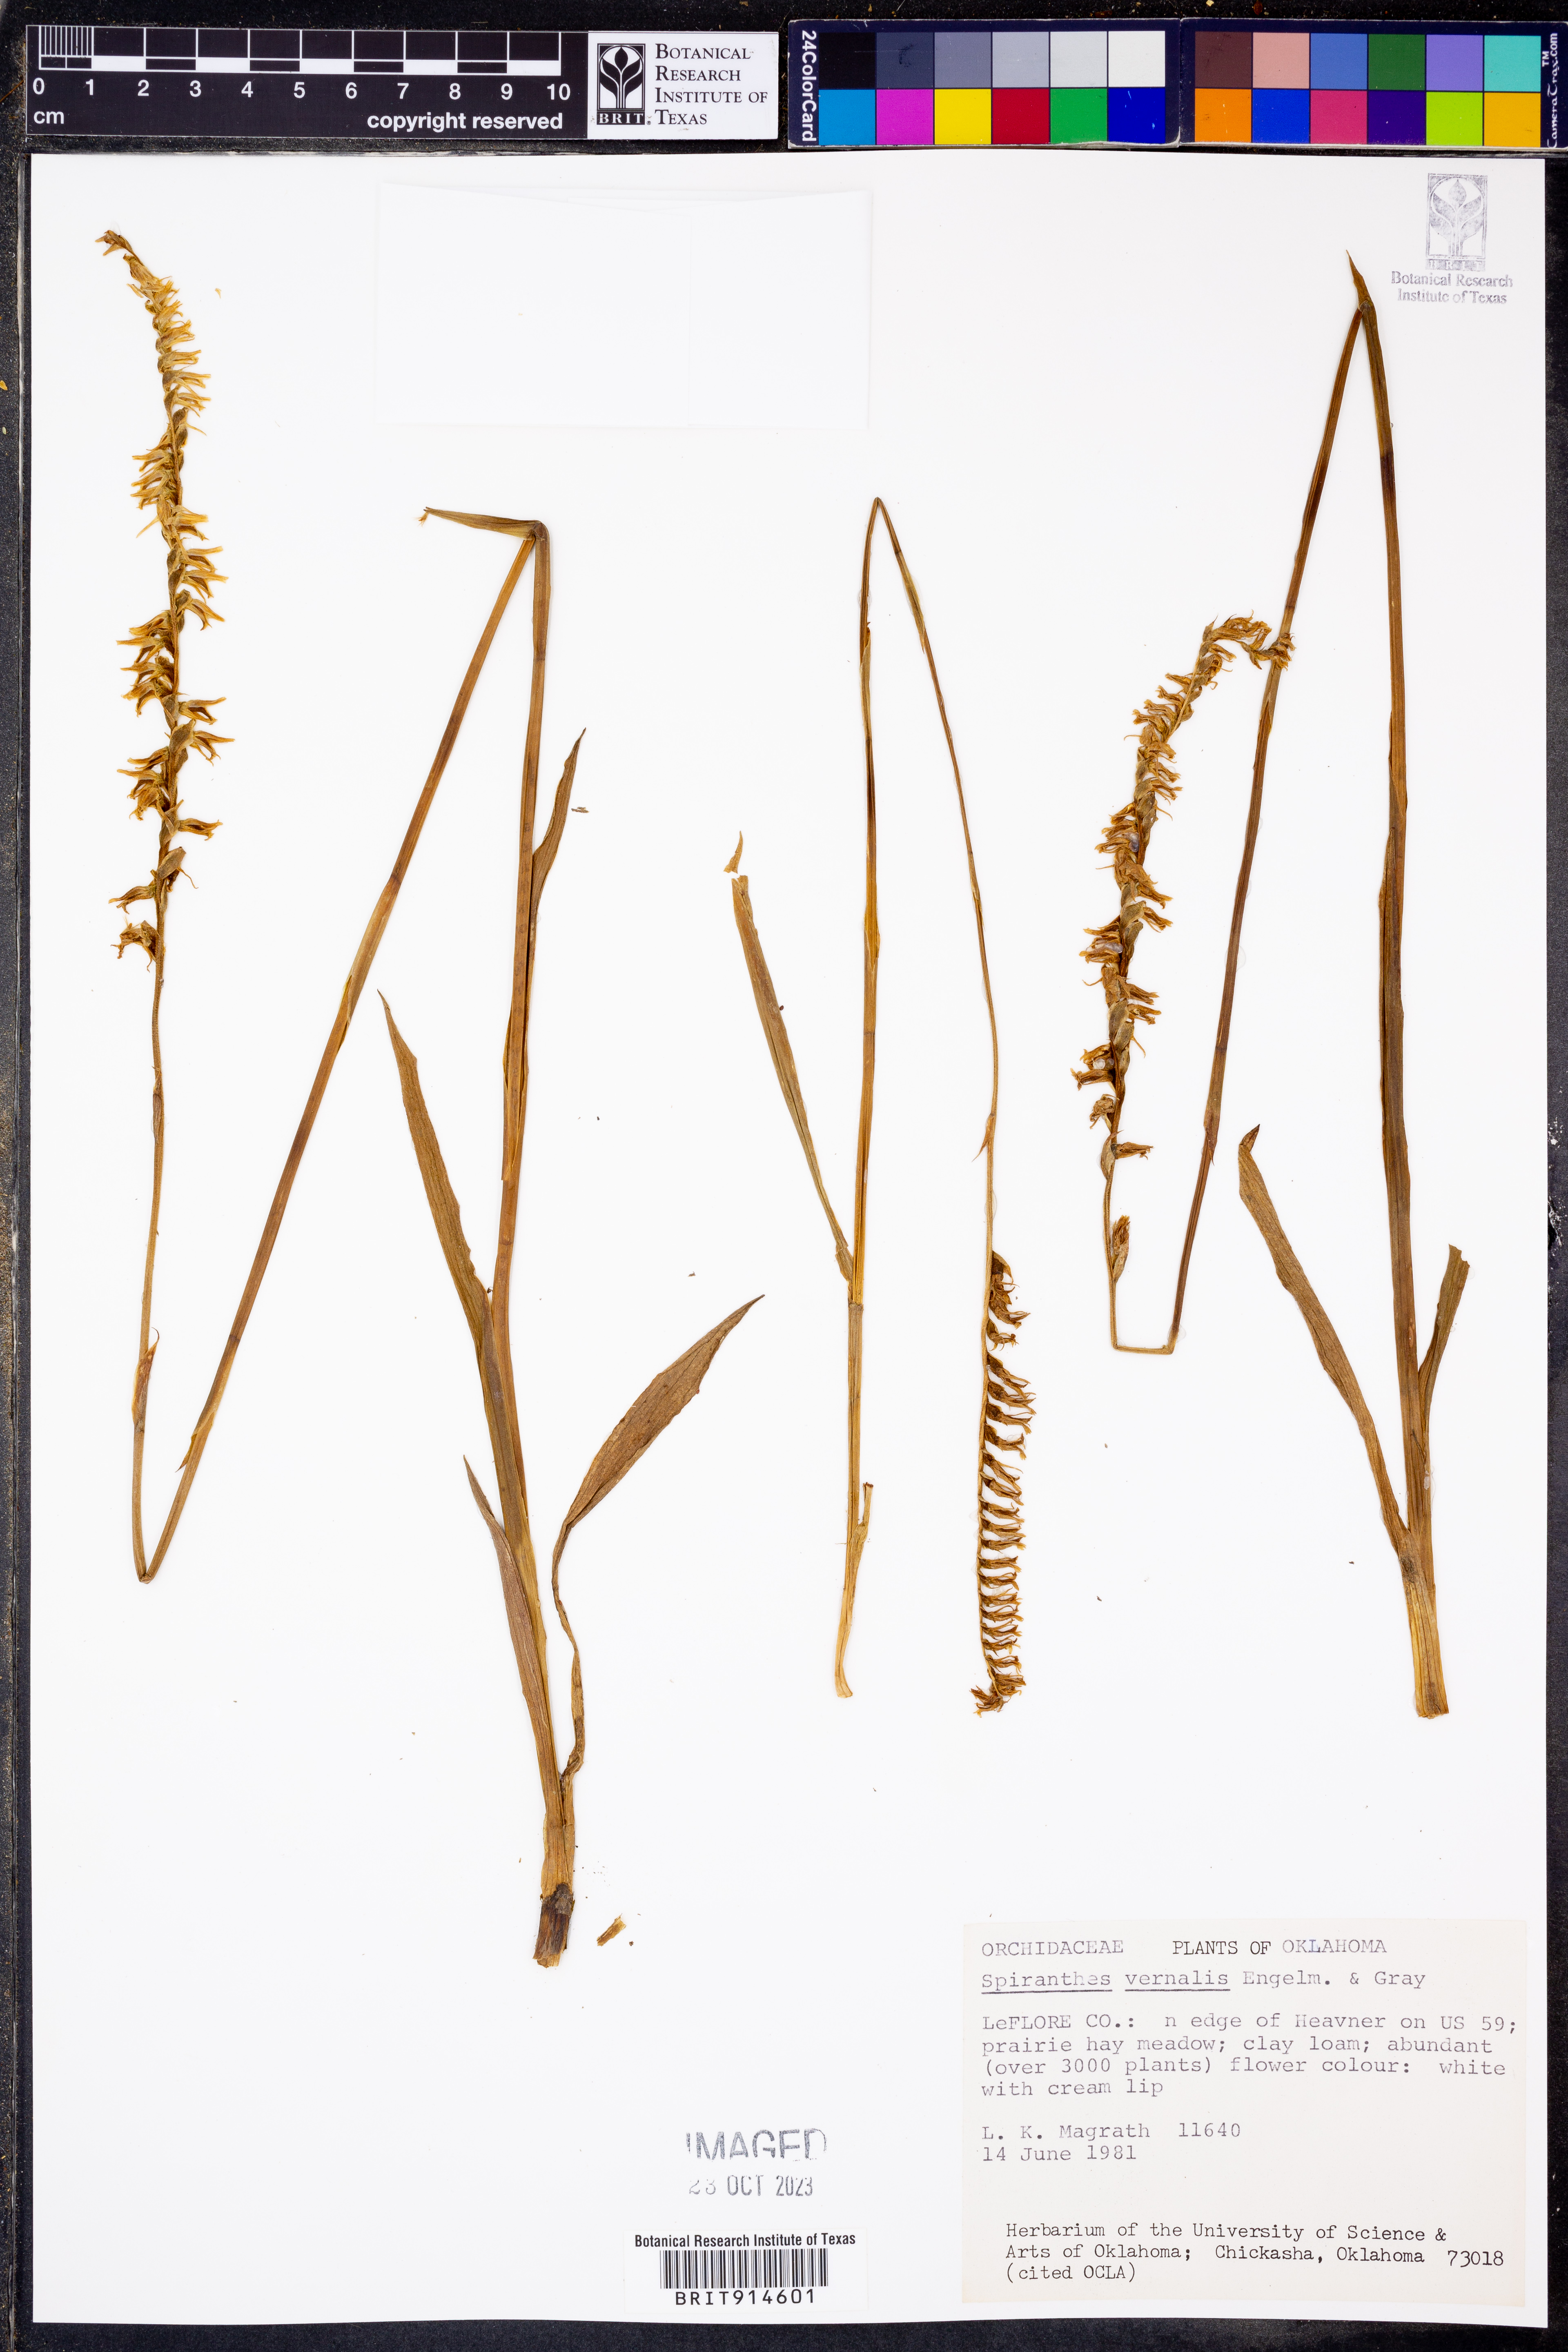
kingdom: Plantae
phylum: Tracheophyta
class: Liliopsida
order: Asparagales
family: Orchidaceae
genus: Spiranthes
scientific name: Spiranthes vernalis
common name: Spring ladies'-tresses
